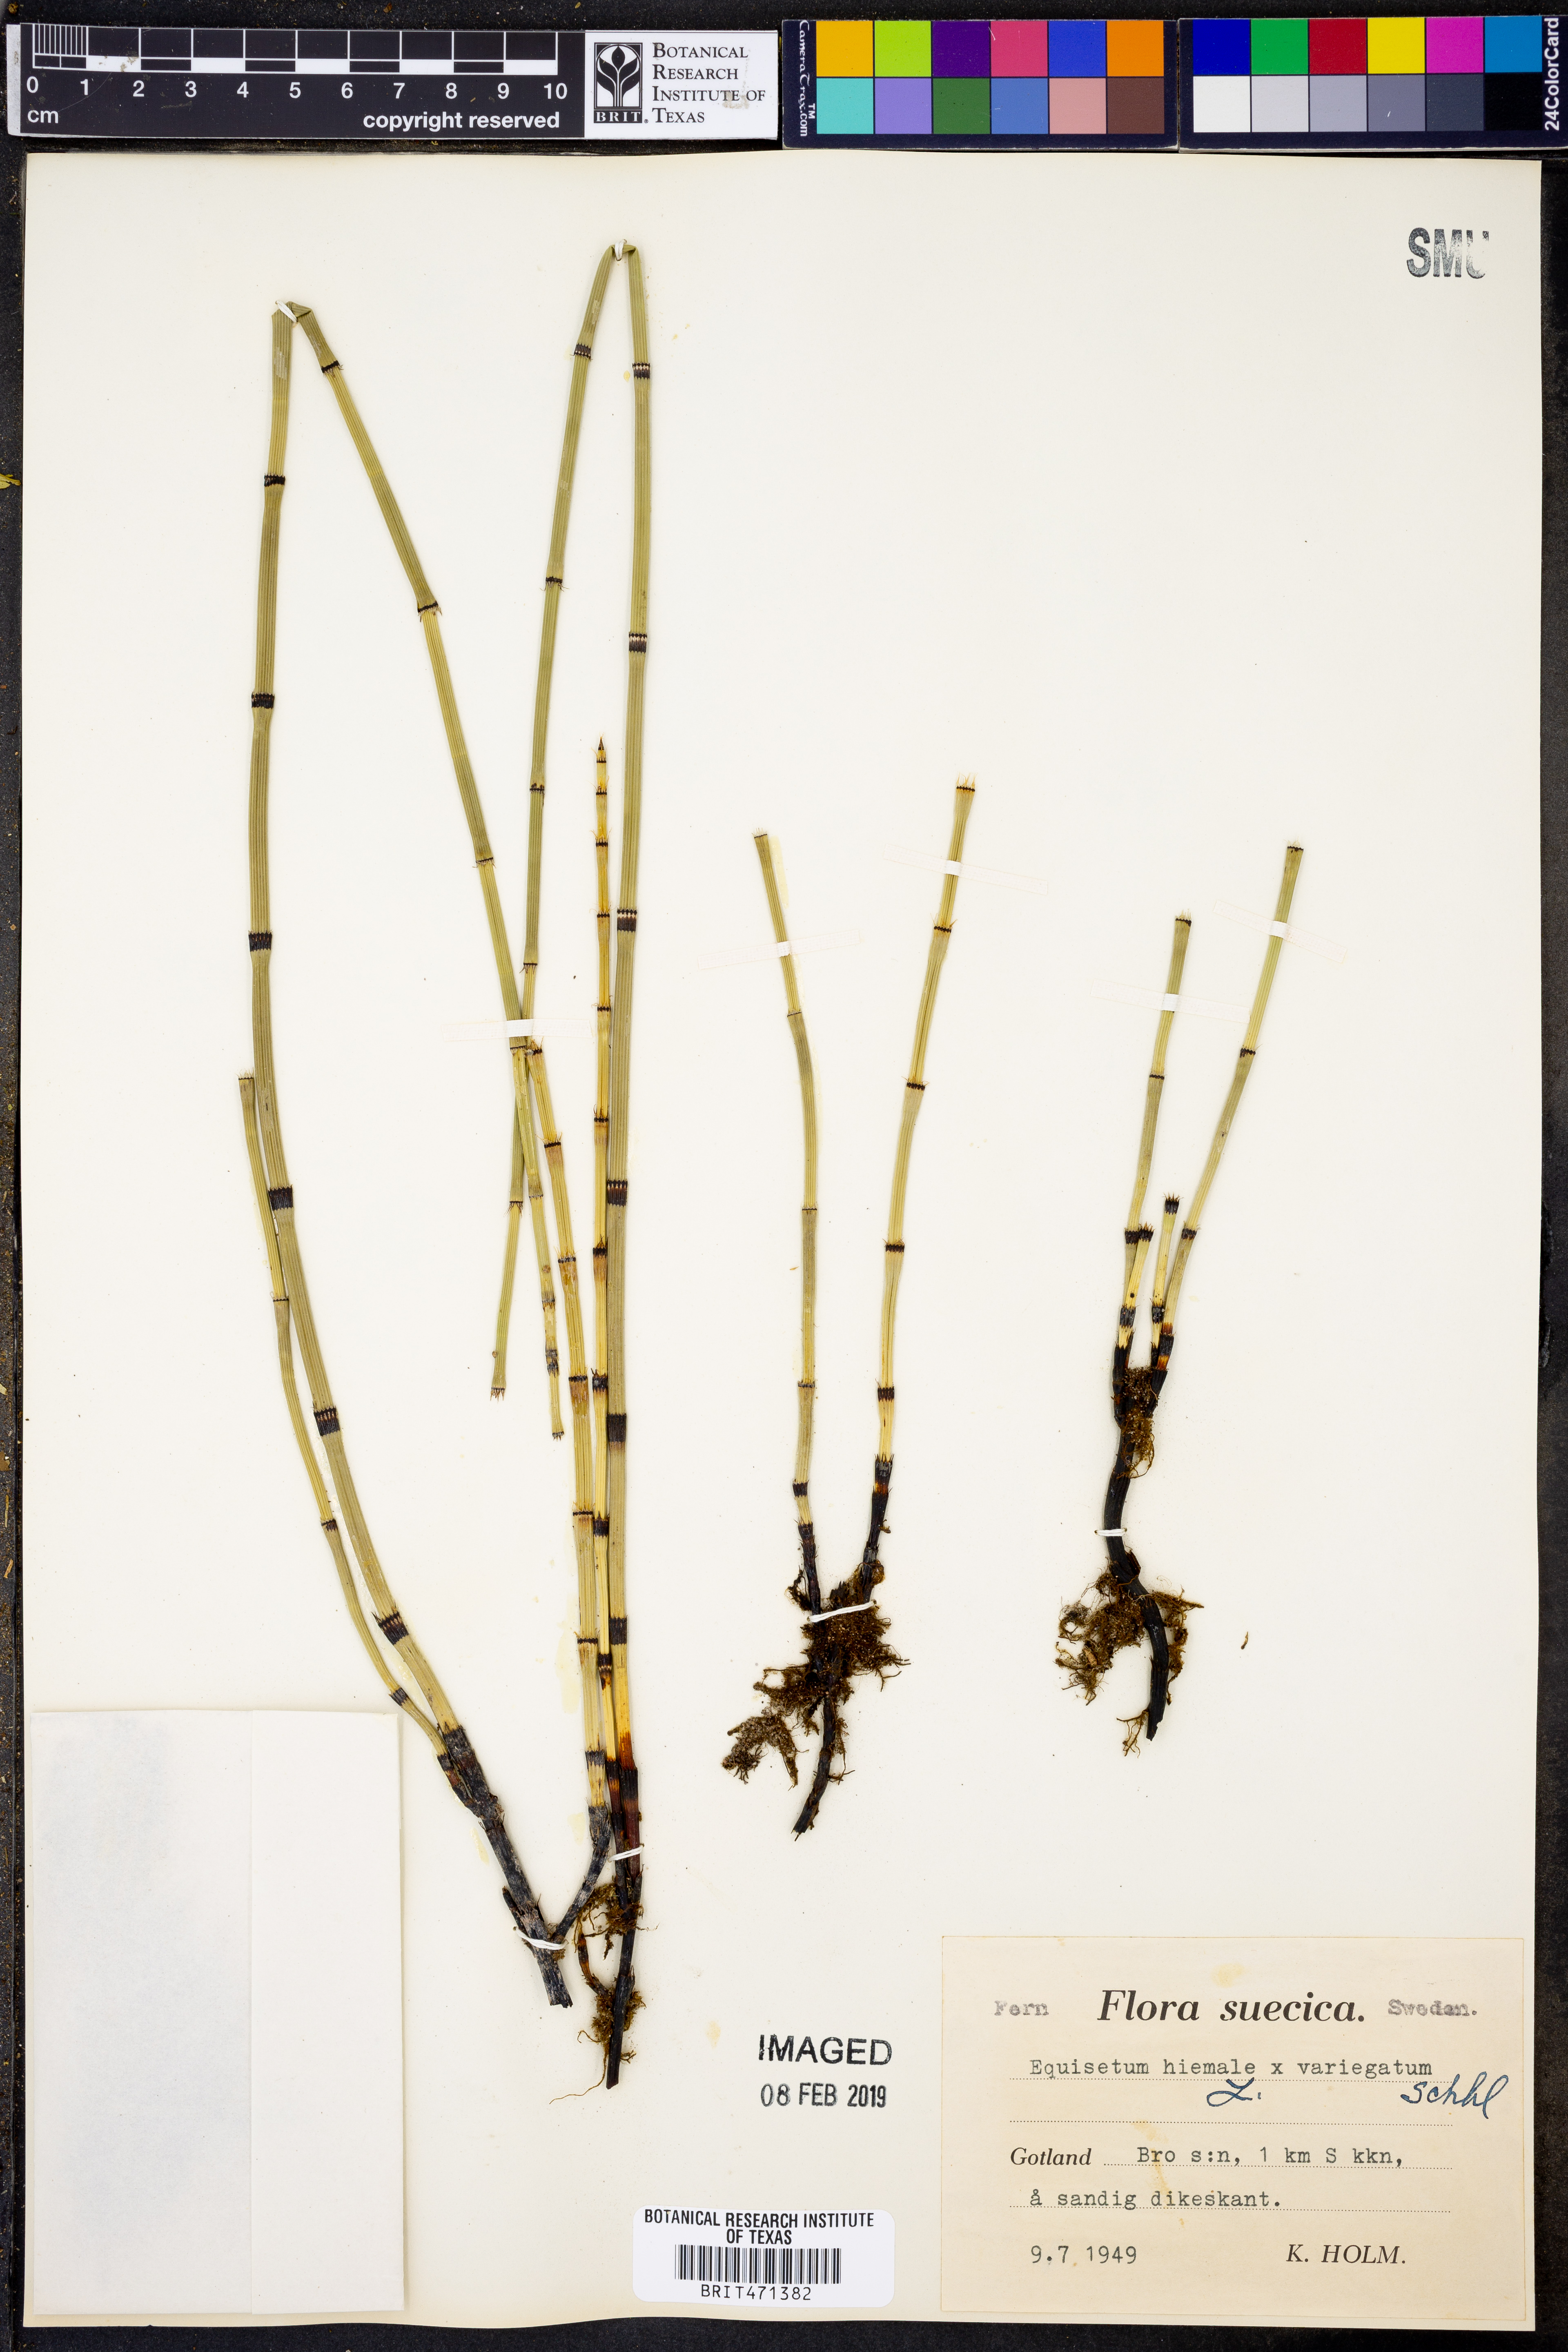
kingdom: Plantae
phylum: Tracheophyta
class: Polypodiopsida
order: Equisetales
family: Equisetaceae
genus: Equisetum
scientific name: Equisetum hyemale
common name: Rough horsetail
